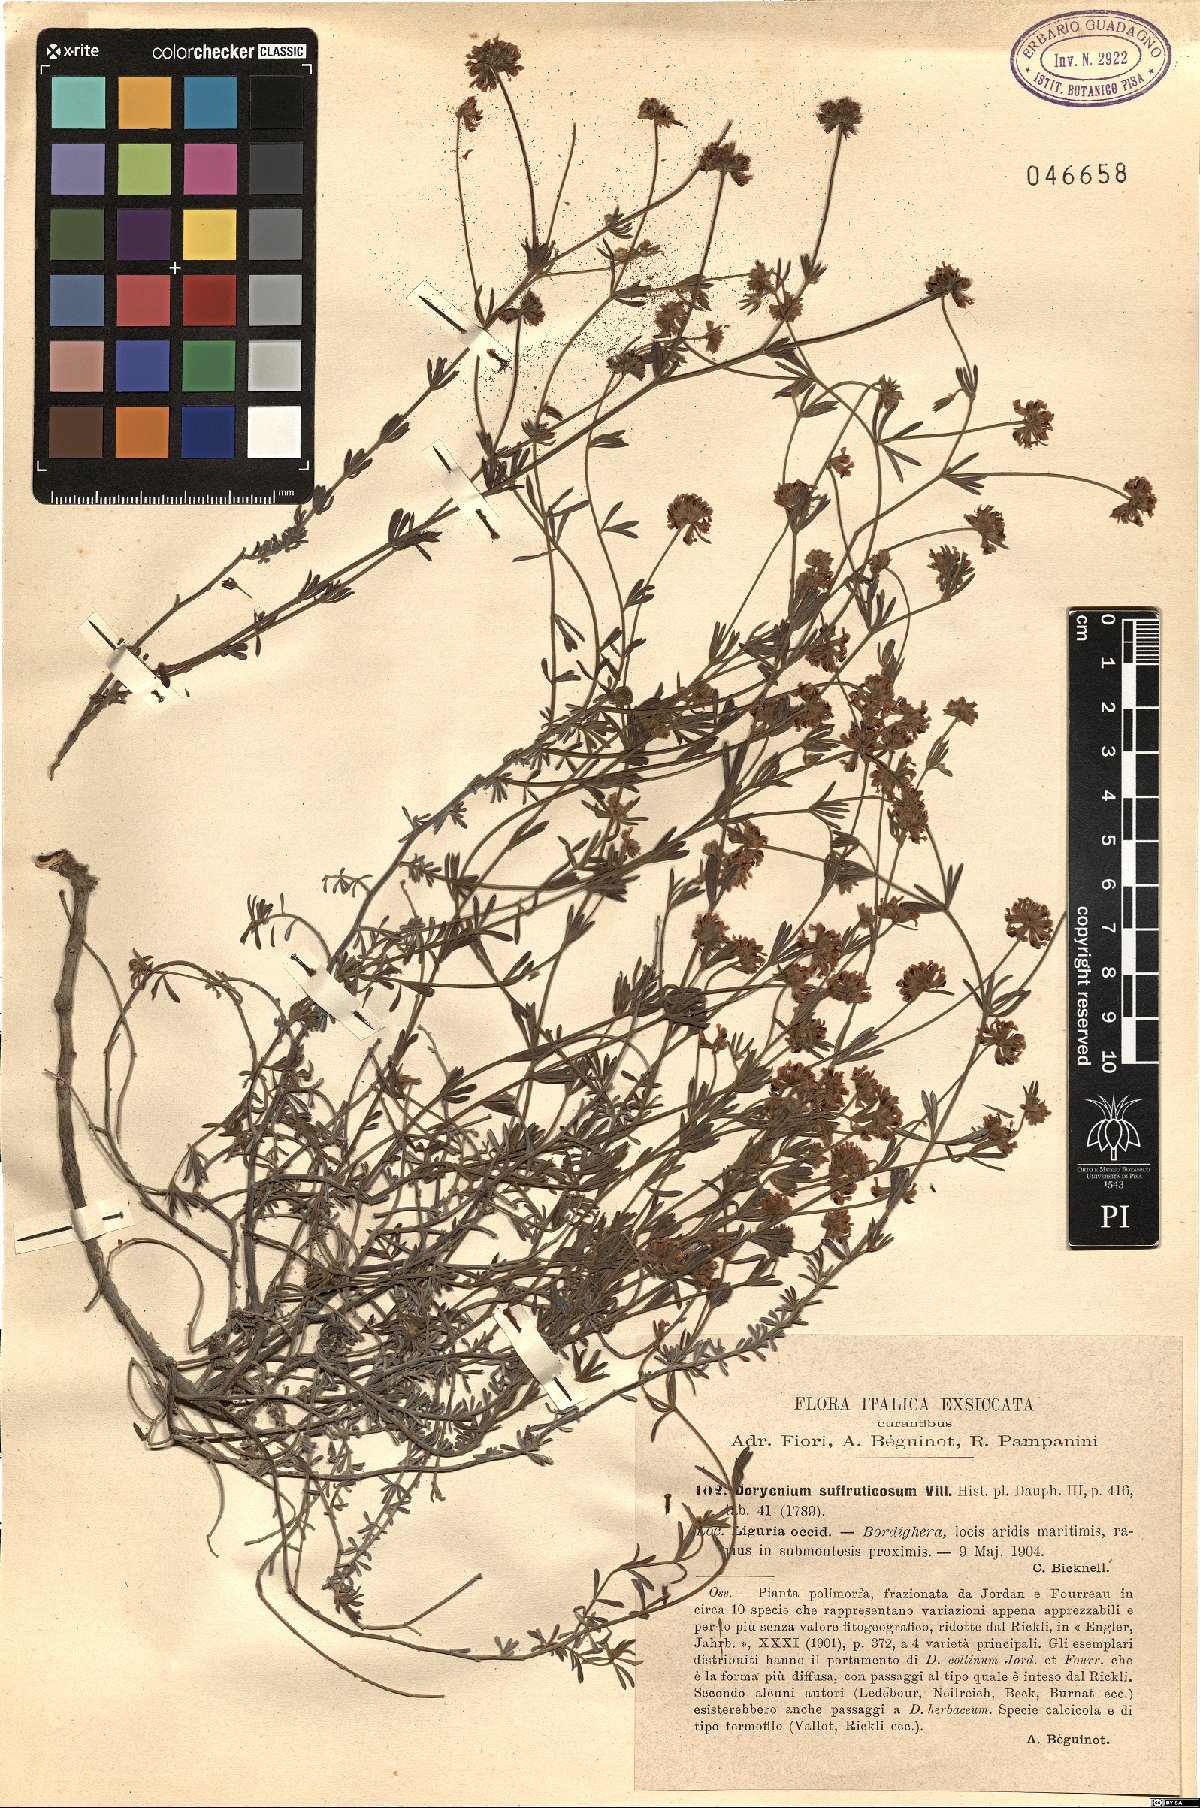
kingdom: Plantae
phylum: Tracheophyta
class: Magnoliopsida
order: Fabales
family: Fabaceae
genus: Lotus
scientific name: Lotus dorycnium
